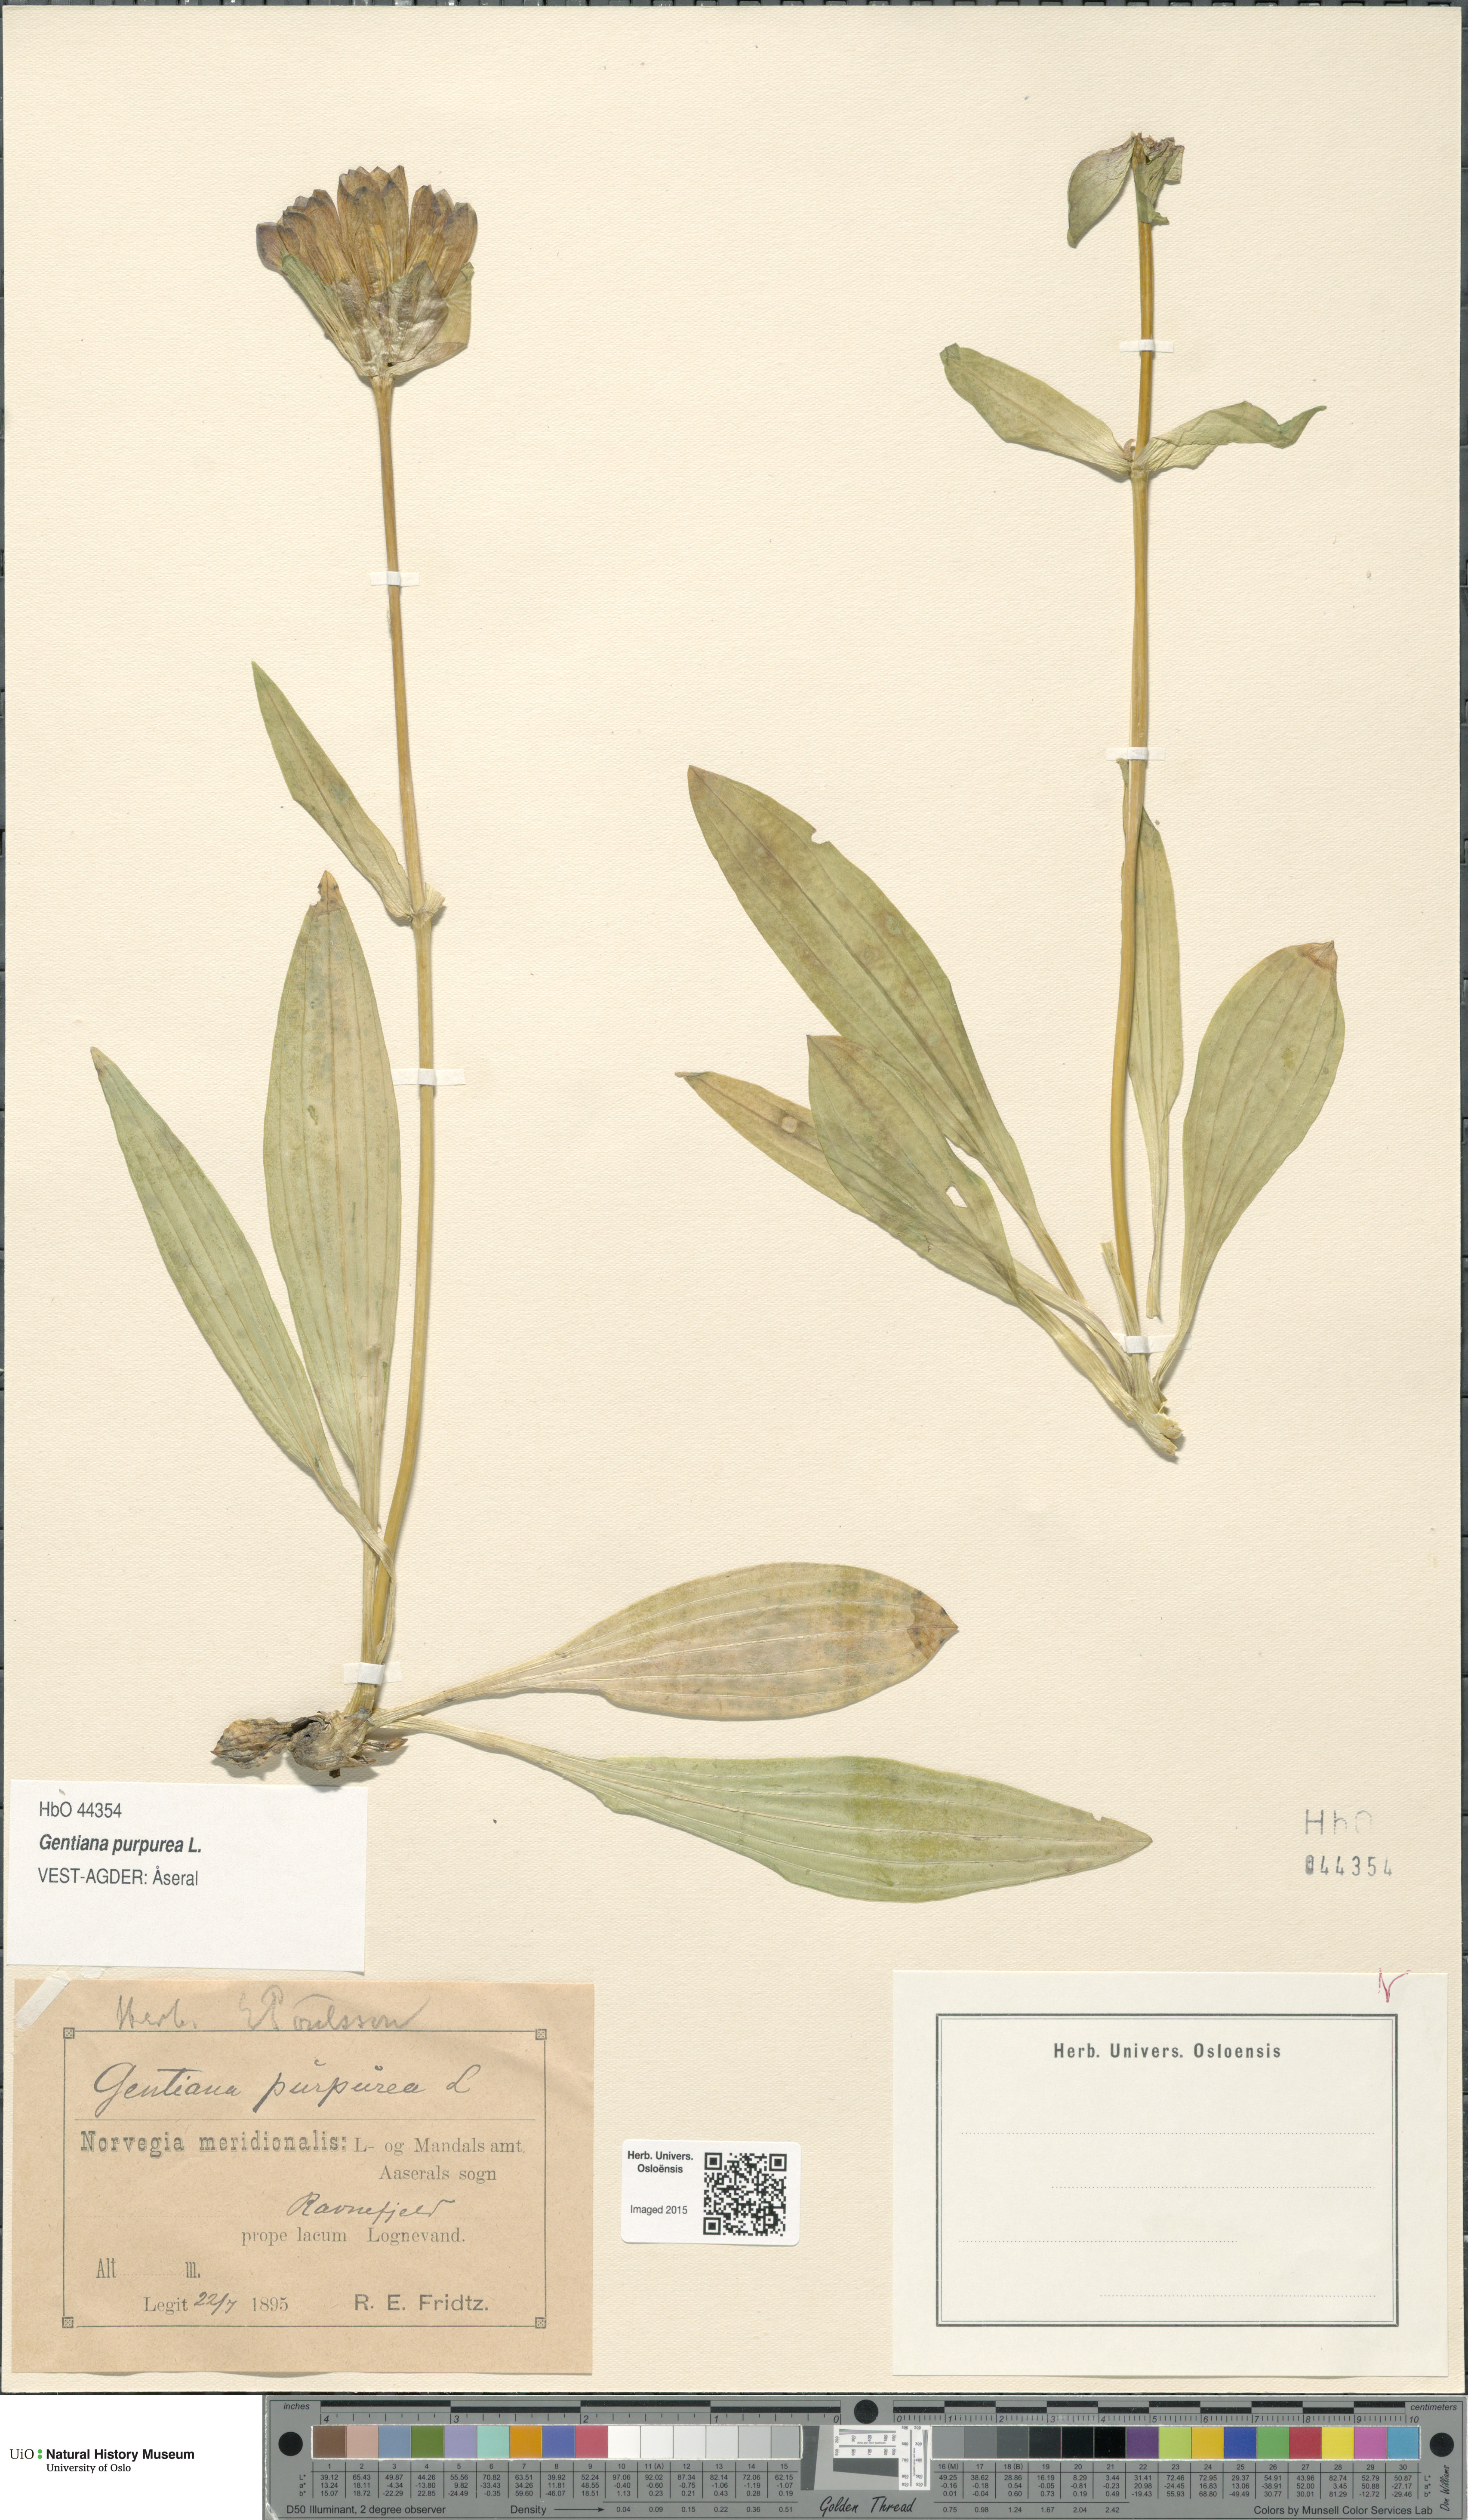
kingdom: Plantae
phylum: Tracheophyta
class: Magnoliopsida
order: Gentianales
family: Gentianaceae
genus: Gentiana
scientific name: Gentiana purpurea
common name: Purple gentian
